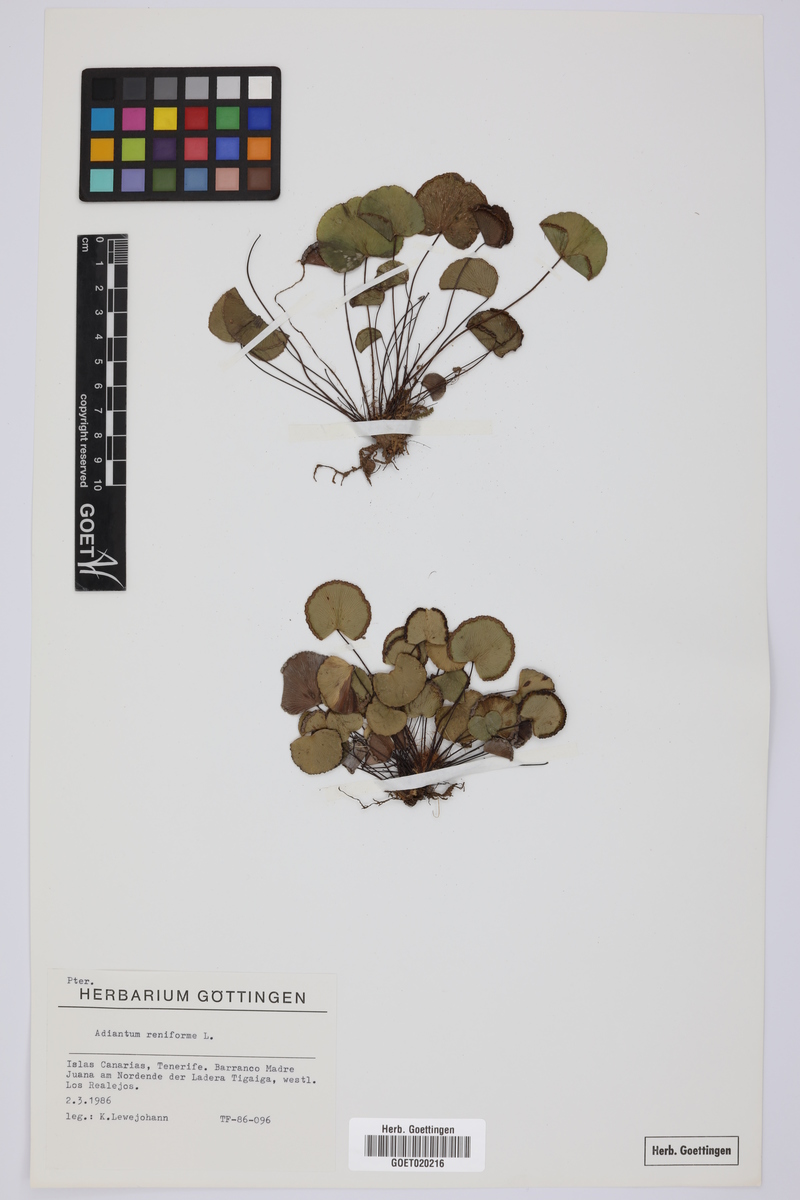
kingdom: Plantae
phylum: Tracheophyta
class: Polypodiopsida
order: Polypodiales
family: Pteridaceae
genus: Adiantum
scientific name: Adiantum reniforme
